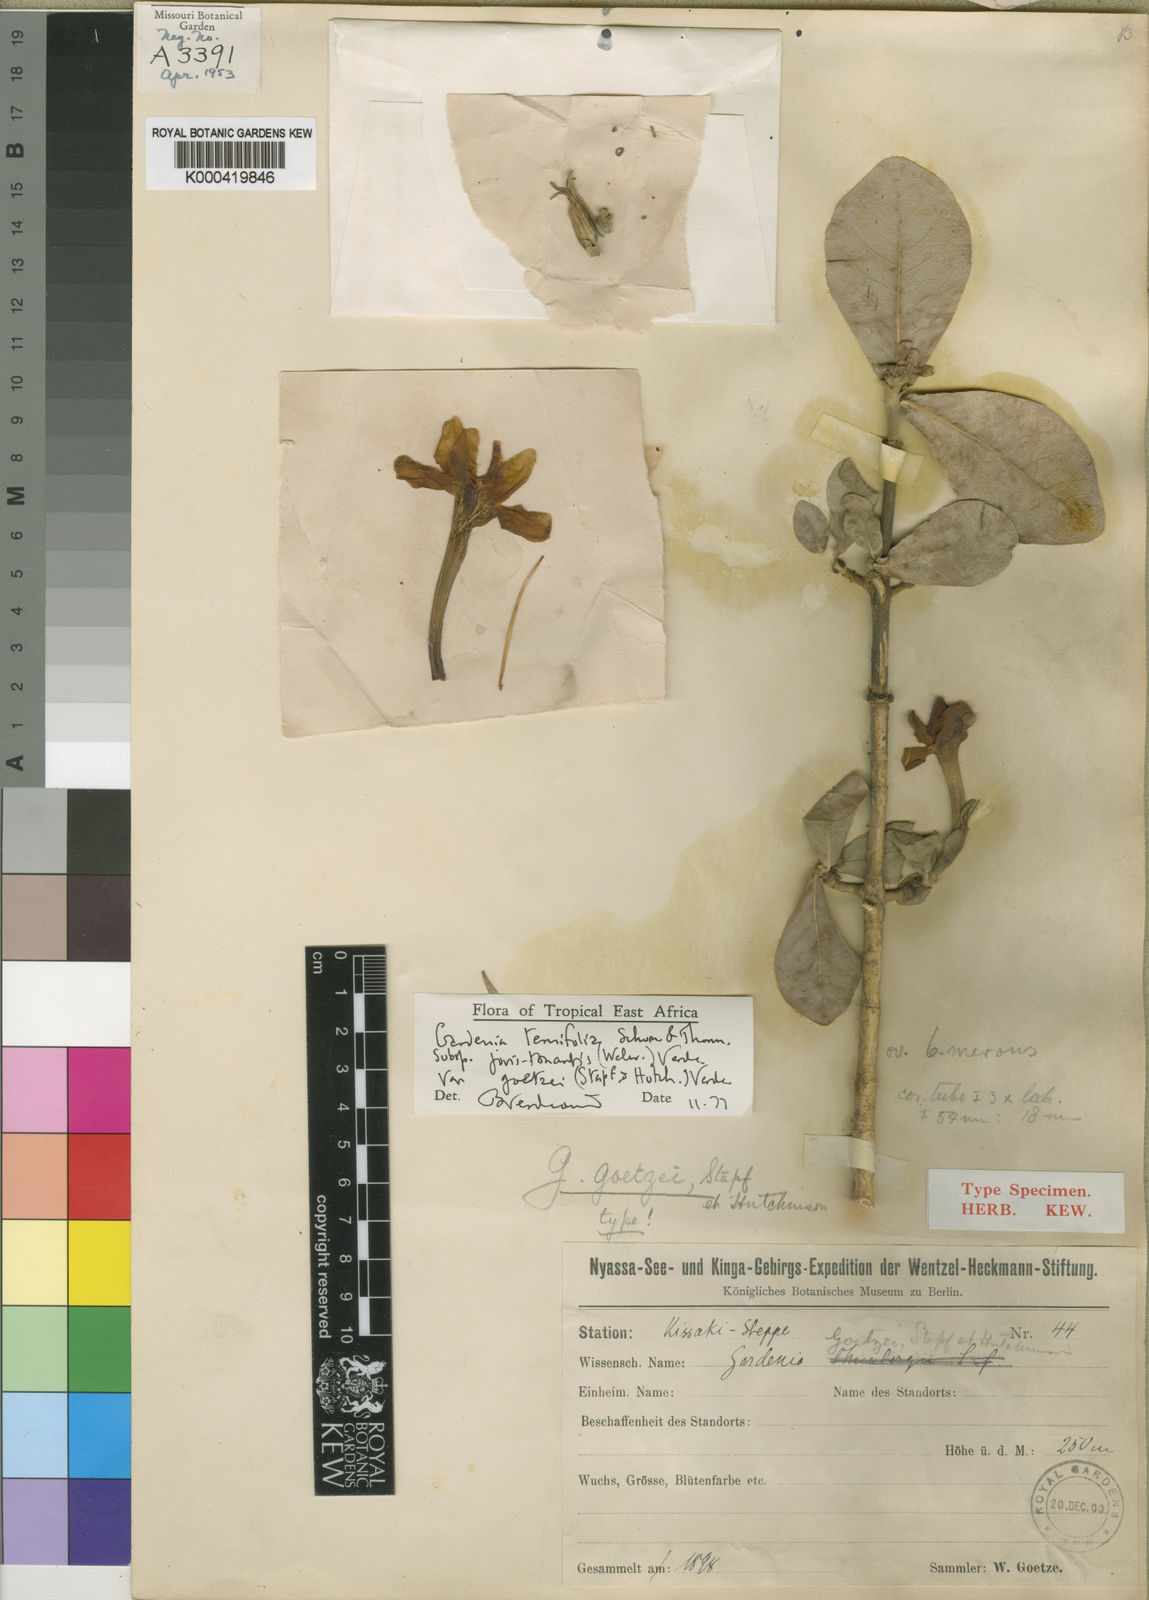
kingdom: Plantae
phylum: Tracheophyta
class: Magnoliopsida
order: Gentianales
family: Rubiaceae
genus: Gardenia
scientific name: Gardenia ternifolia
